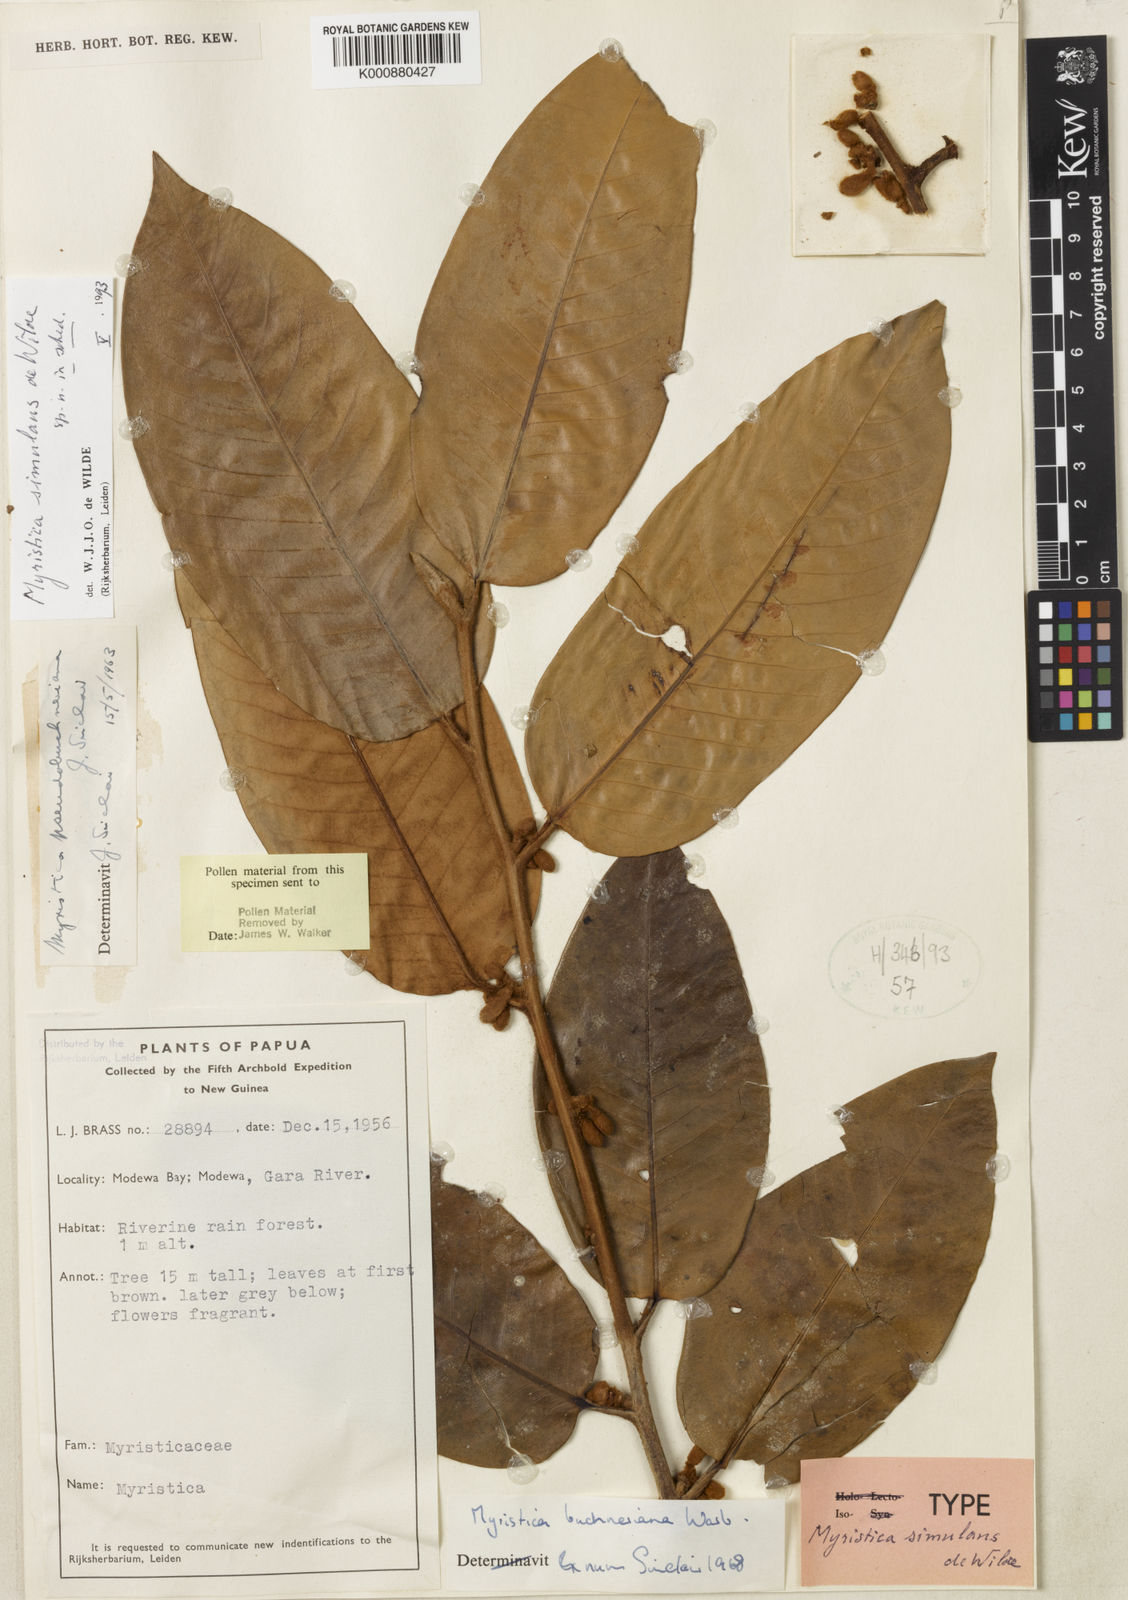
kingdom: Plantae
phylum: Tracheophyta
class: Magnoliopsida
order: Magnoliales
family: Myristicaceae
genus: Myristica
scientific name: Myristica
